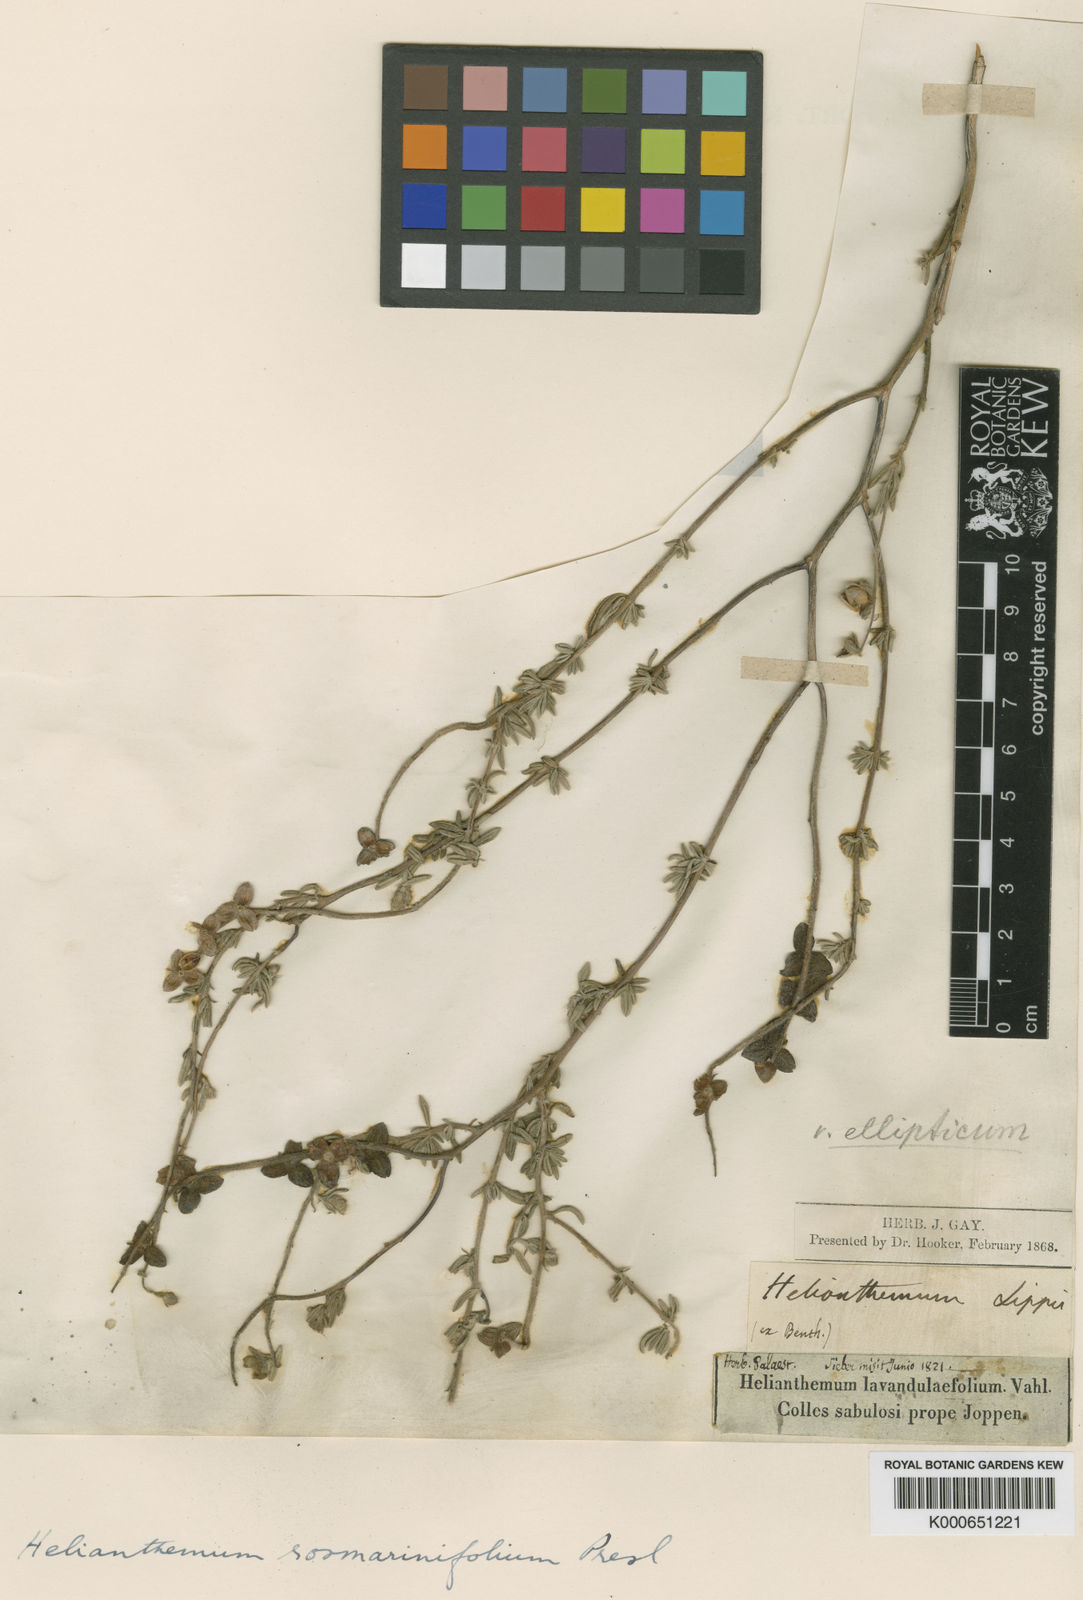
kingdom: Plantae
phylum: Tracheophyta
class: Magnoliopsida
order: Malvales
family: Cistaceae
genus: Helianthemum
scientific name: Helianthemum stipulatum
